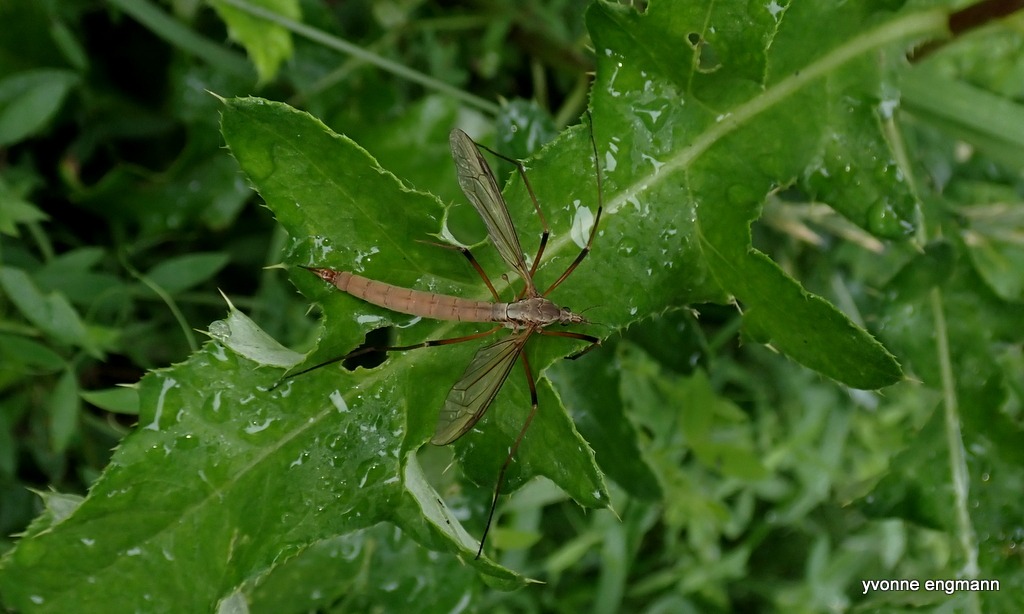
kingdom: Animalia
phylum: Arthropoda
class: Insecta
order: Diptera
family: Tipulidae
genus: Tipula
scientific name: Tipula paludosa
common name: Mosestankelben
